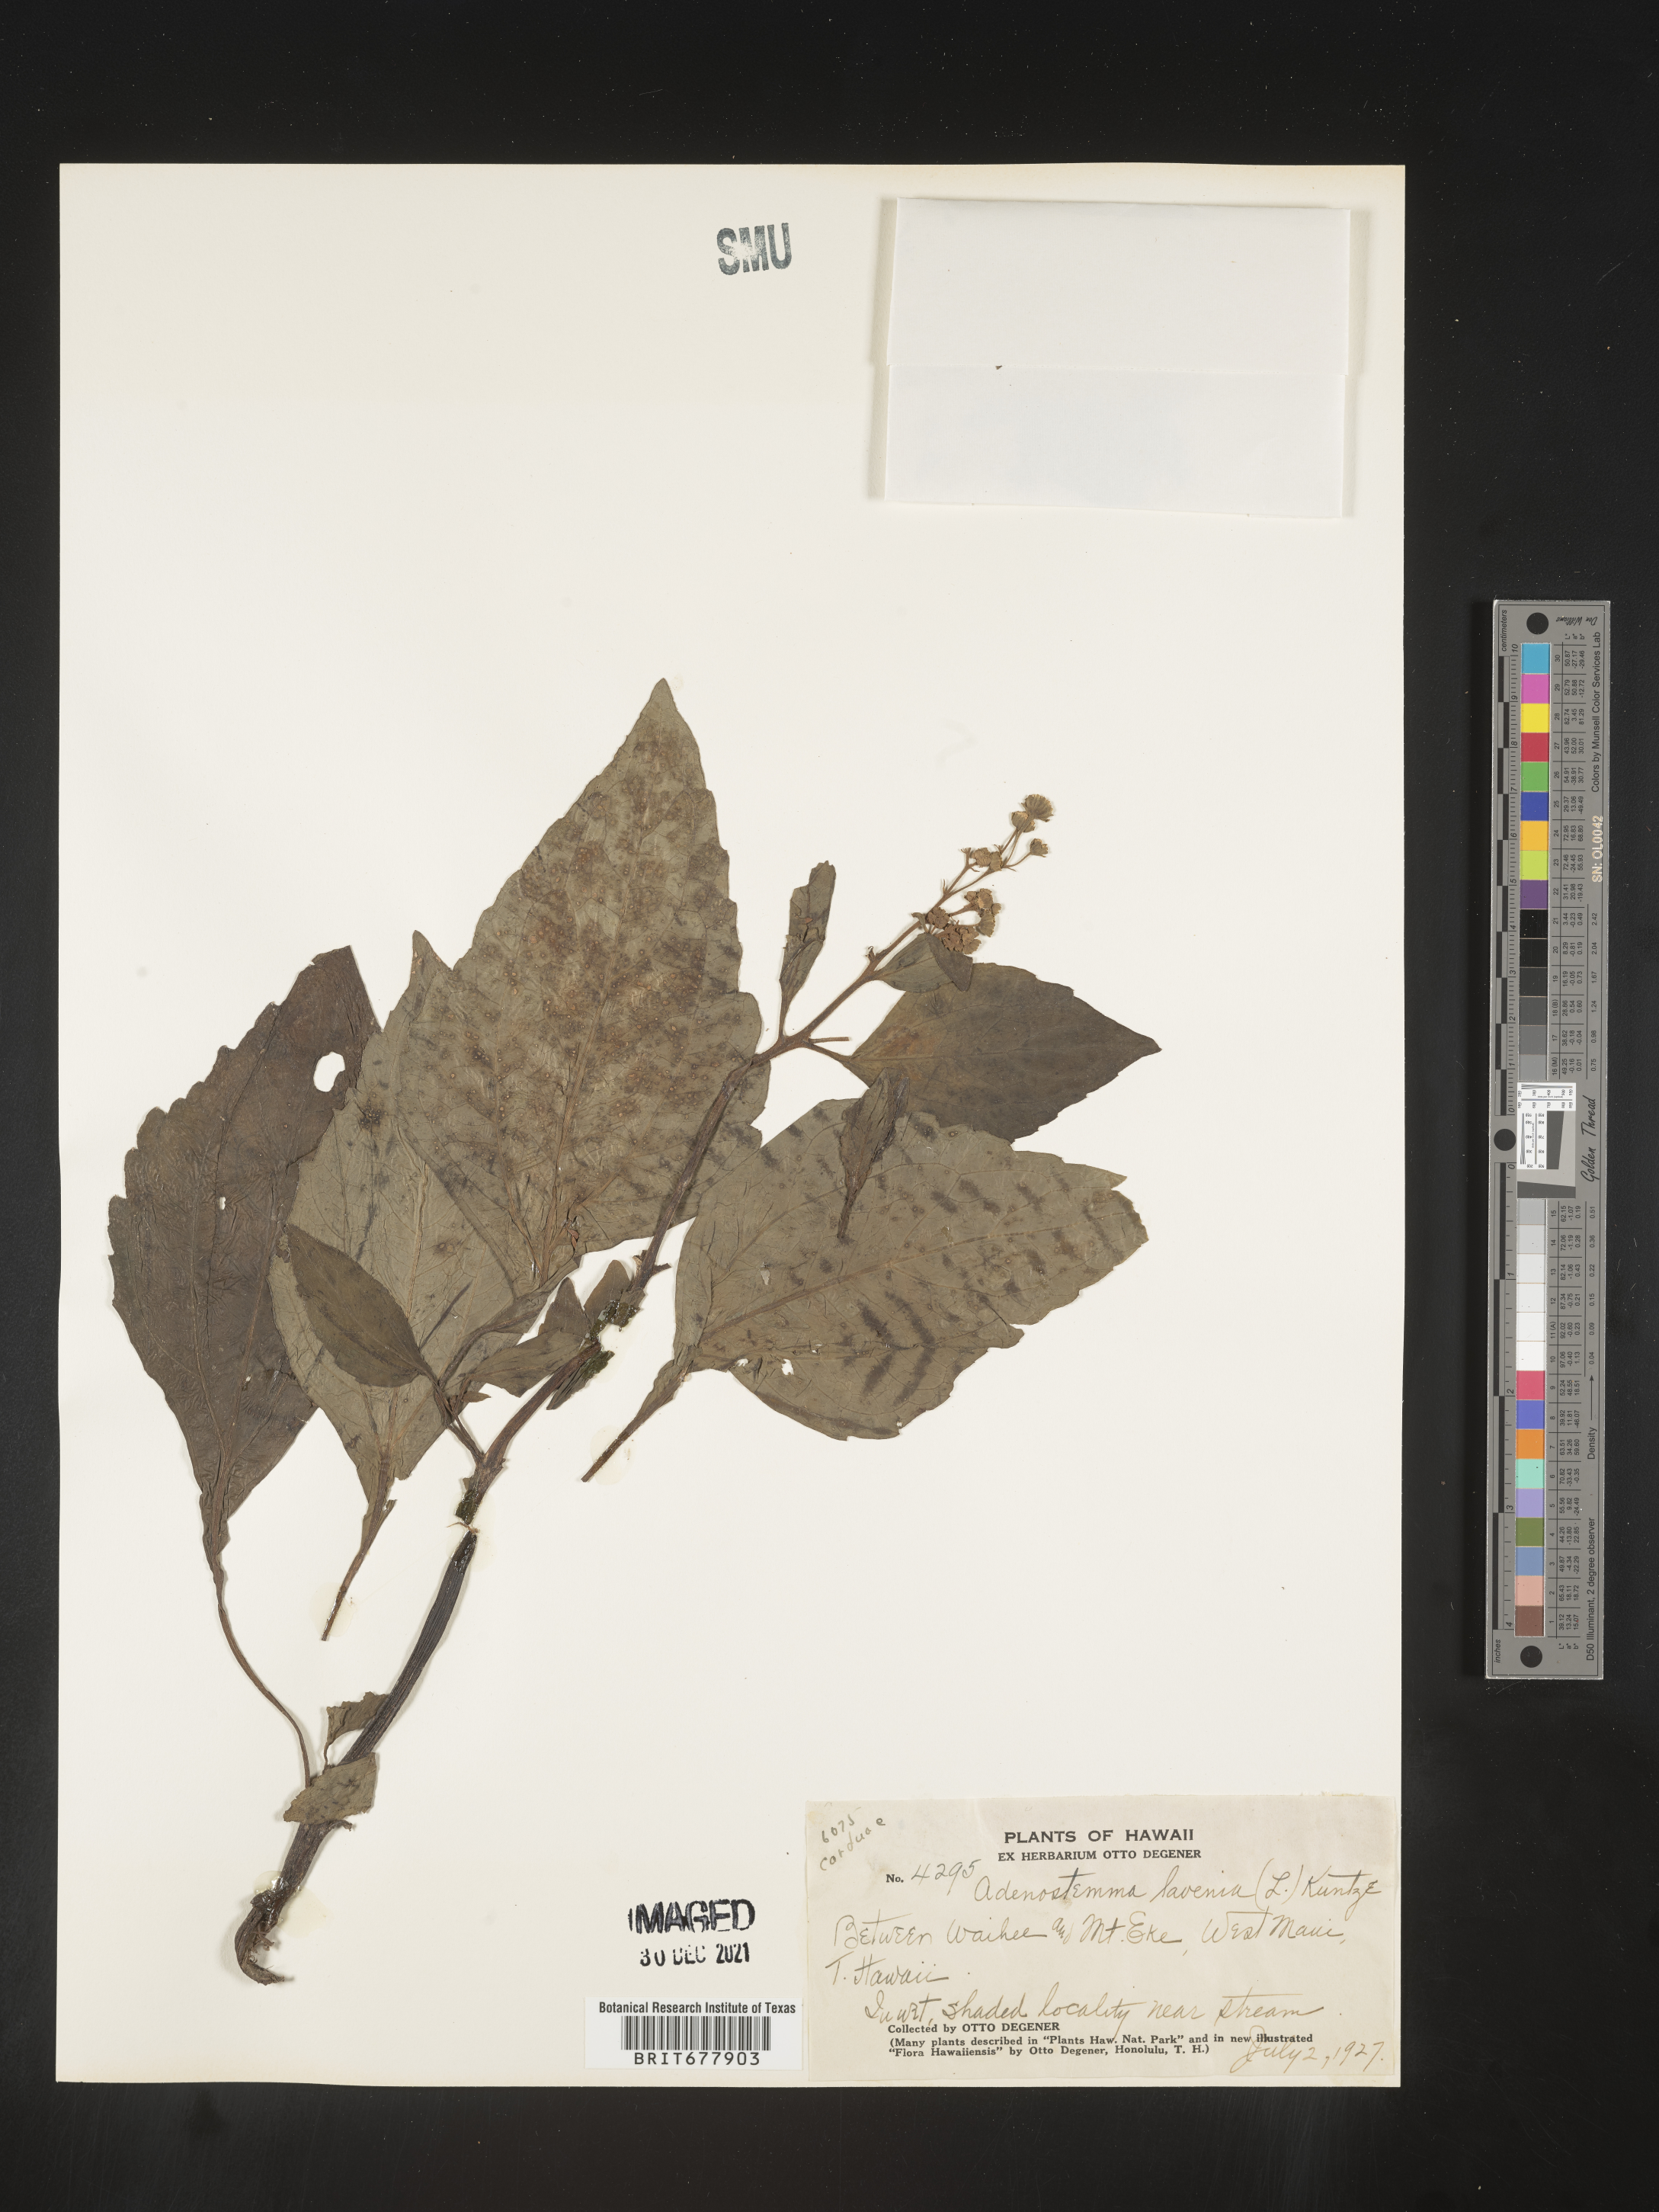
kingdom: Plantae
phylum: Tracheophyta
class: Magnoliopsida
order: Asterales
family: Asteraceae
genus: Adenostemma
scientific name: Adenostemma lavenia
